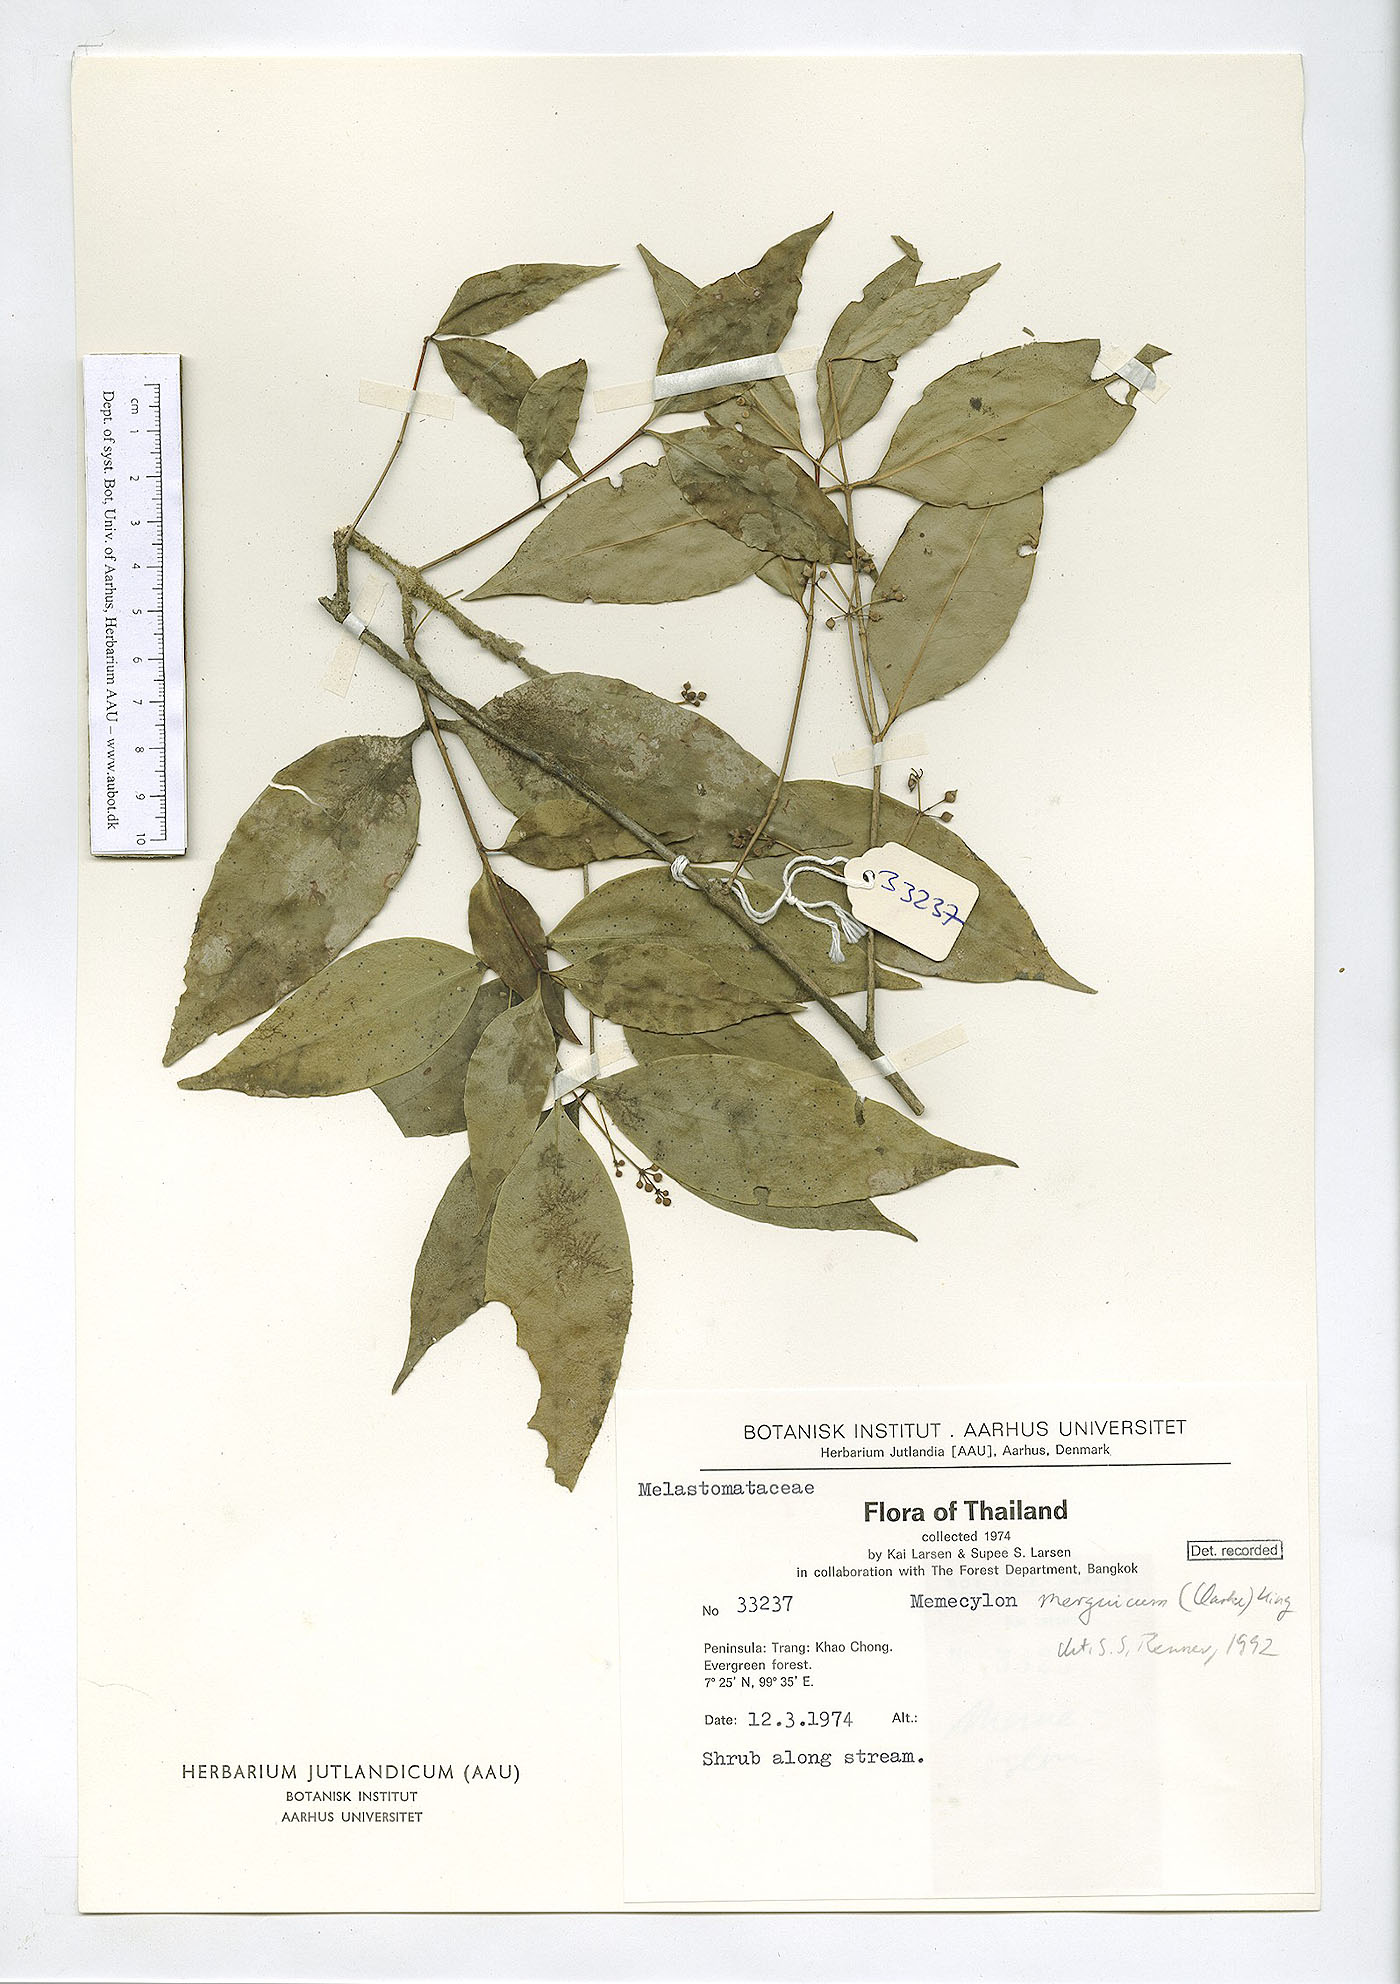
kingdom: Plantae
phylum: Tracheophyta
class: Magnoliopsida
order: Myrtales
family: Melastomataceae
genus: Memecylon
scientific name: Memecylon cantleyi
